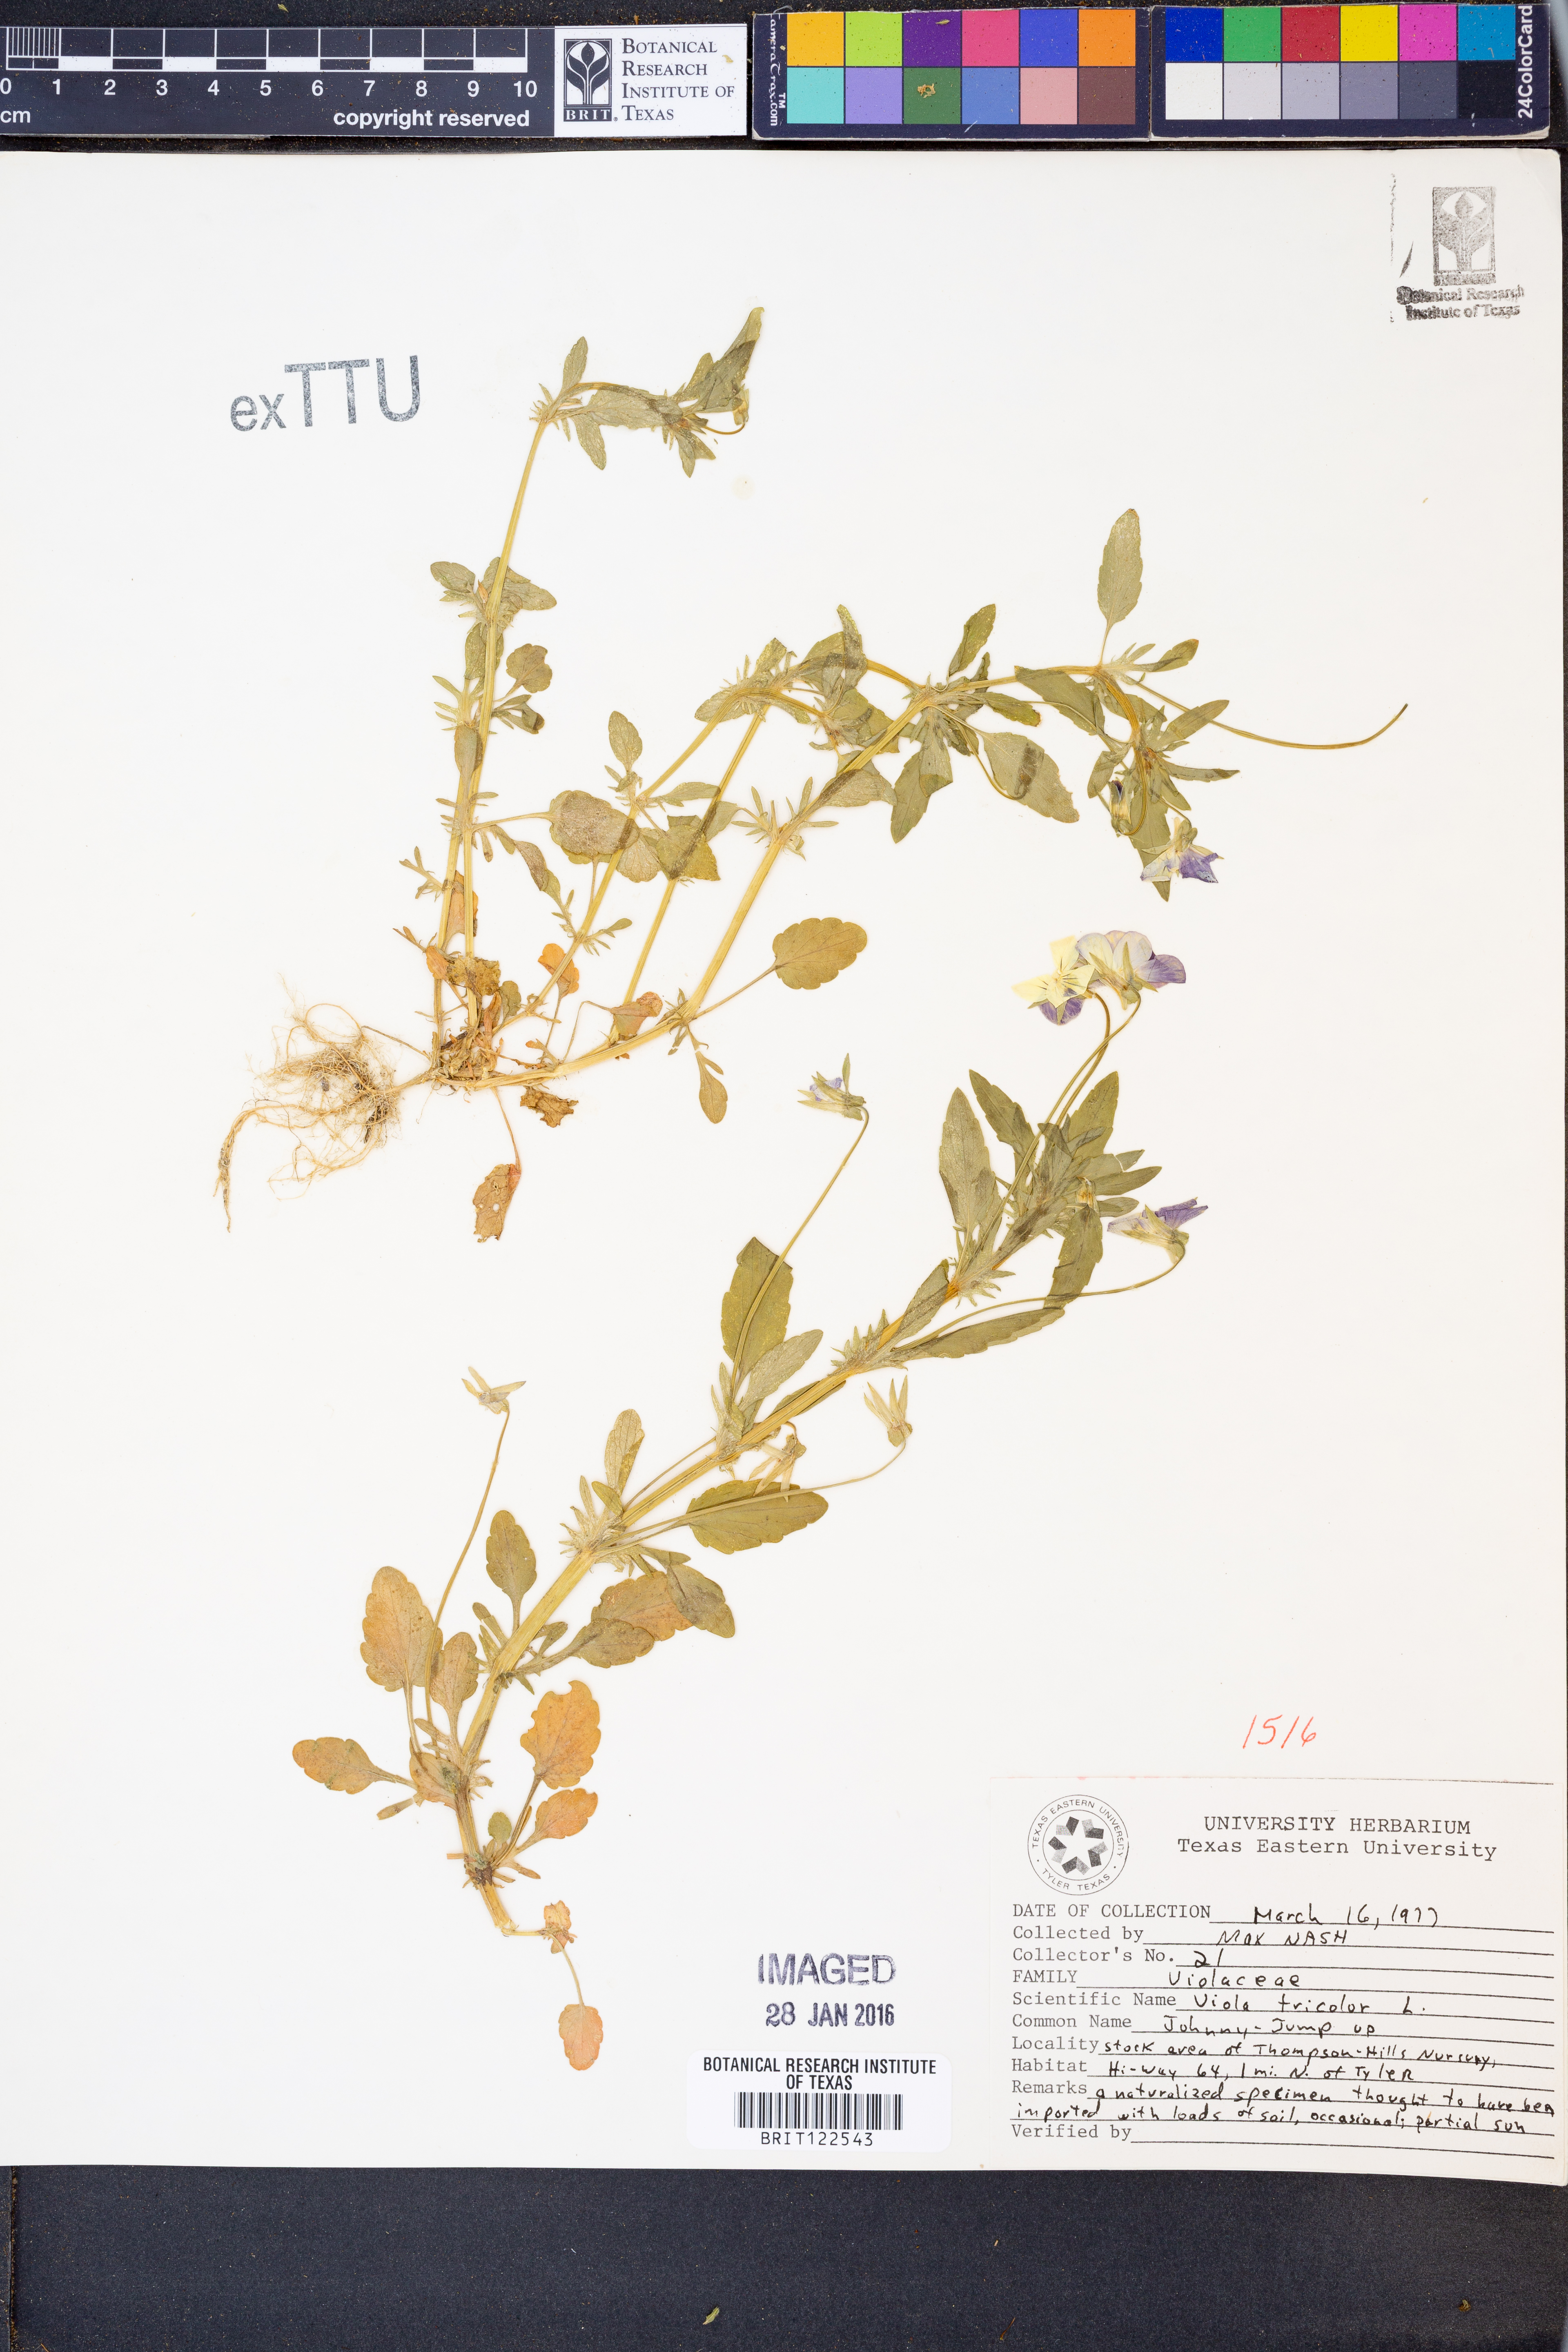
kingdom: Plantae
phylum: Tracheophyta
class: Magnoliopsida
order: Malpighiales
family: Violaceae
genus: Viola
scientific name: Viola tricolor
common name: Pansy
